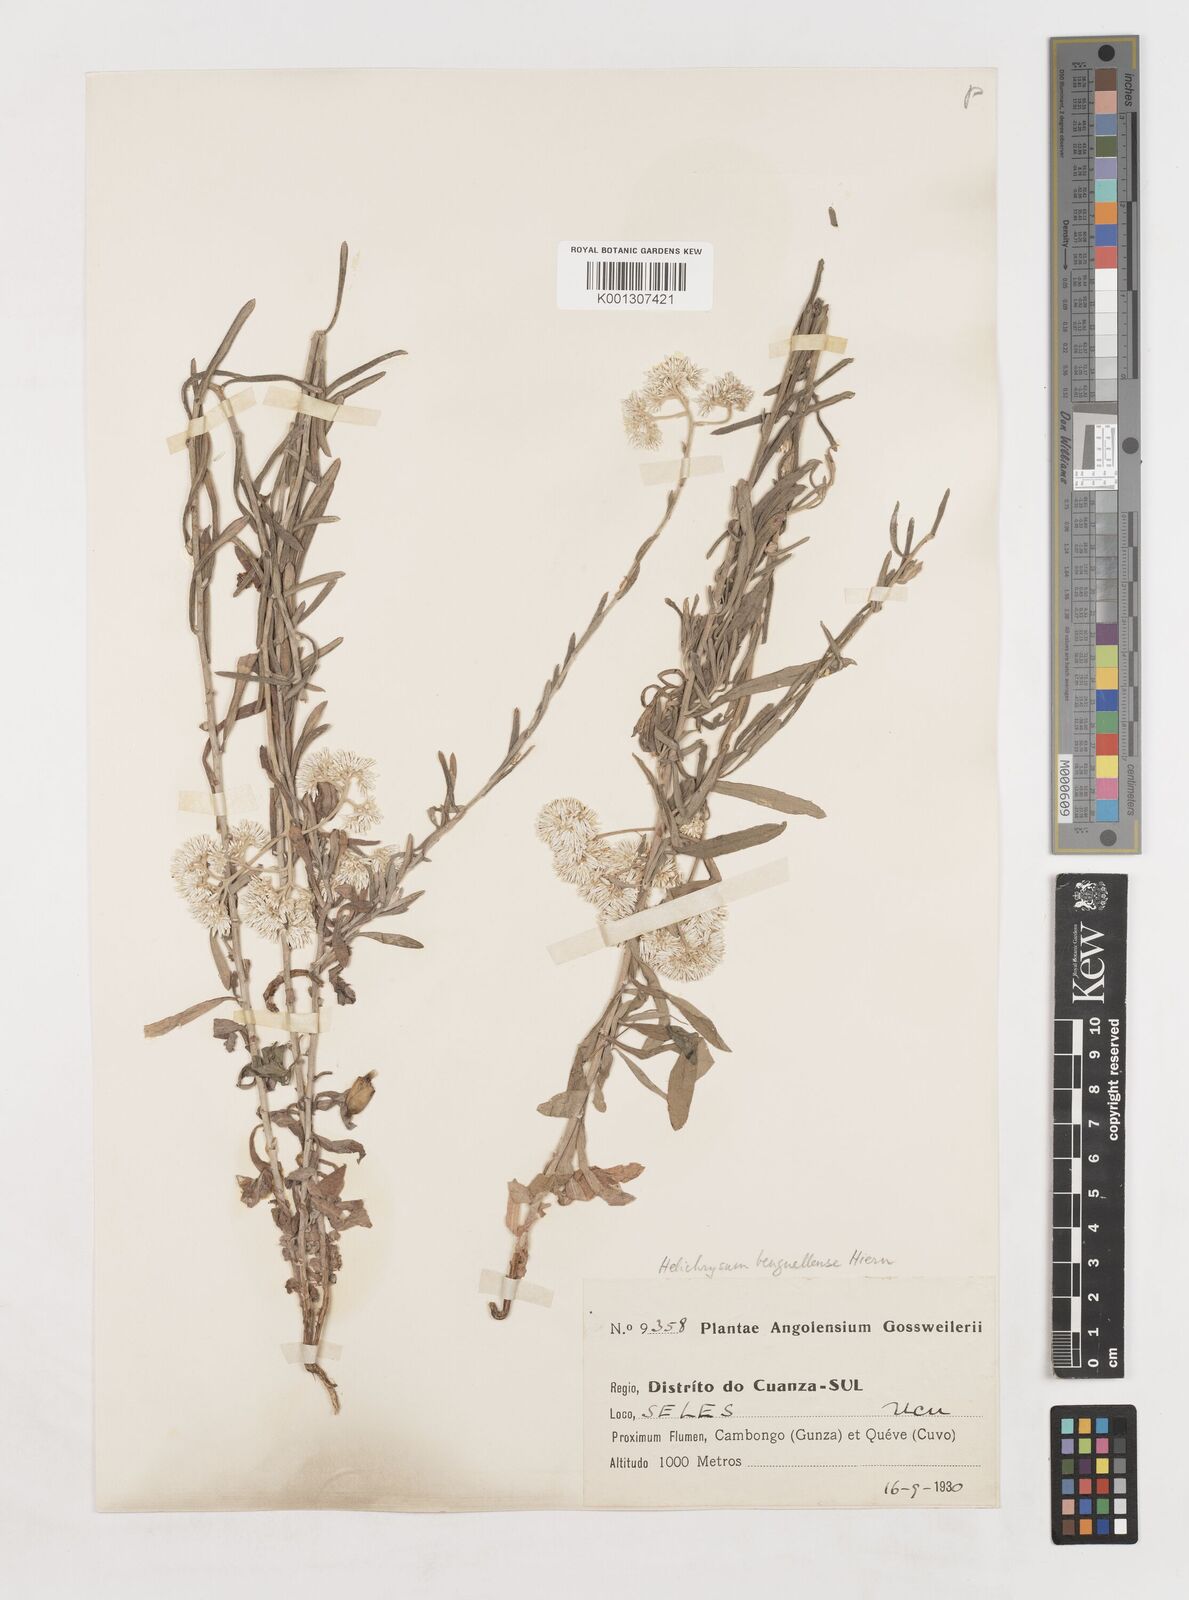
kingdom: Plantae
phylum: Tracheophyta
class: Magnoliopsida
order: Asterales
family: Asteraceae
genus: Helichrysum
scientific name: Helichrysum benguellense
